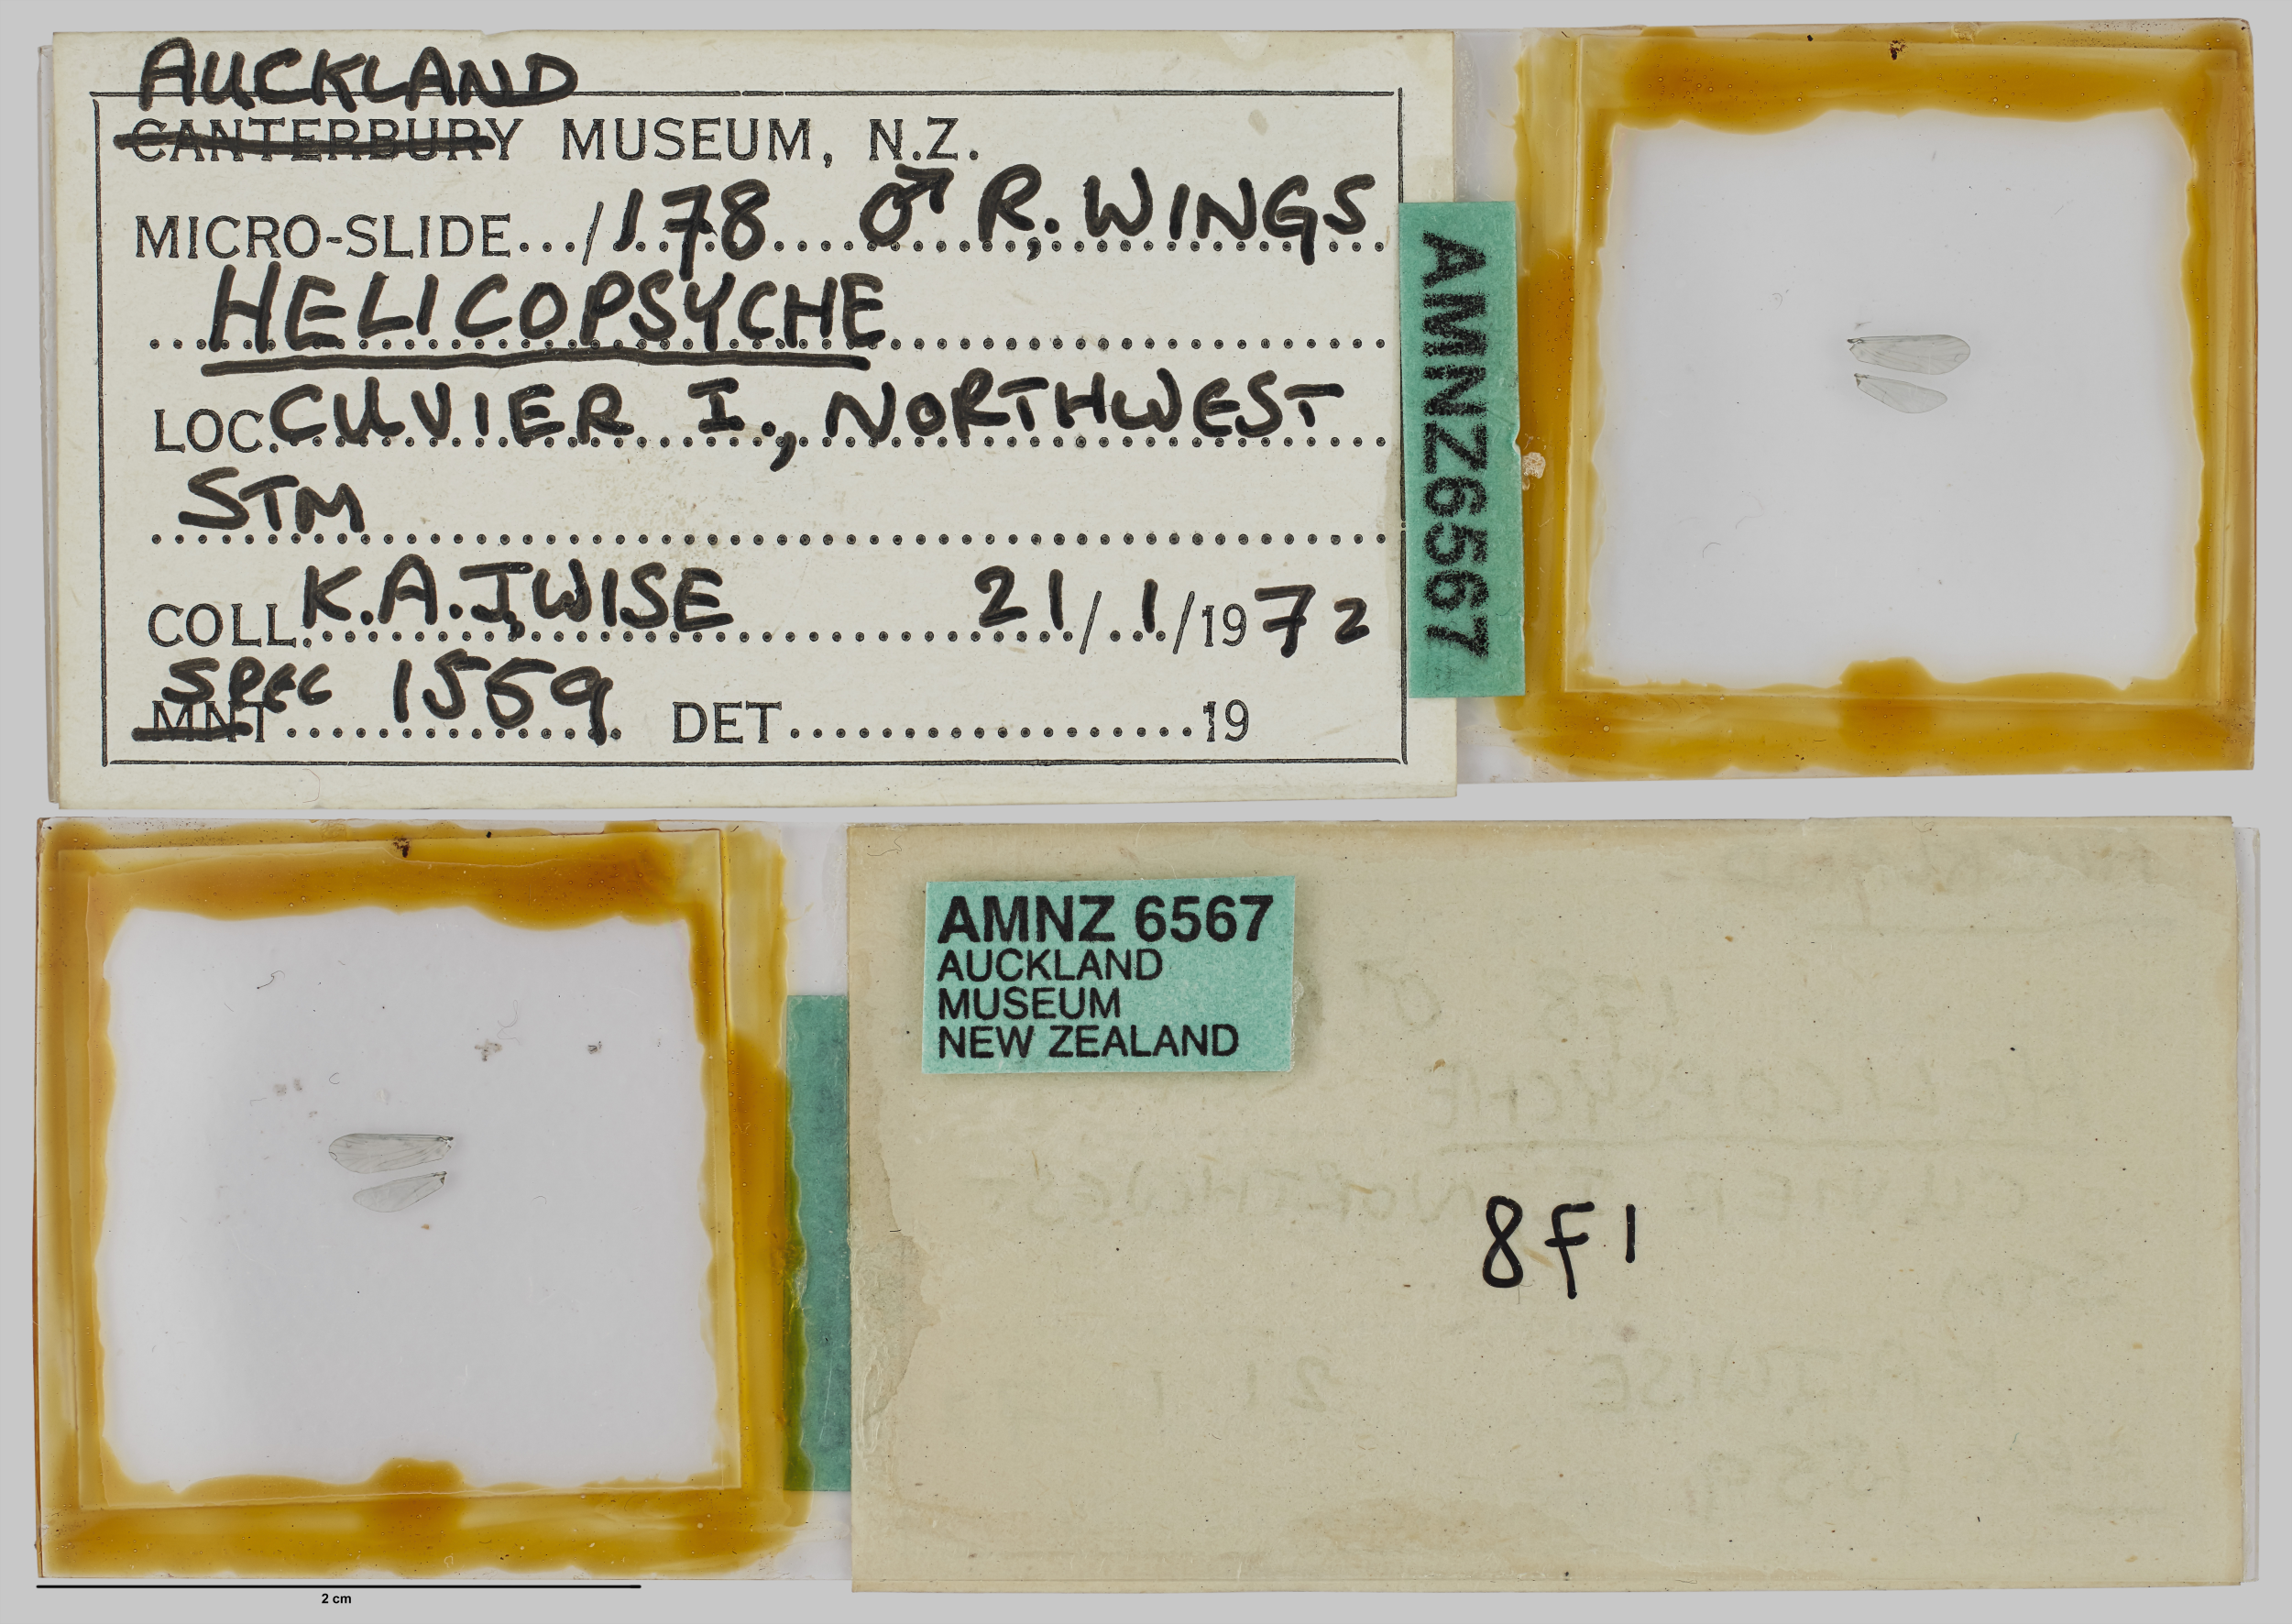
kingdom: Animalia
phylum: Arthropoda
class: Insecta
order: Trichoptera
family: Helicopsychidae
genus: Helicopsyche
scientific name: Helicopsyche cuvieri
